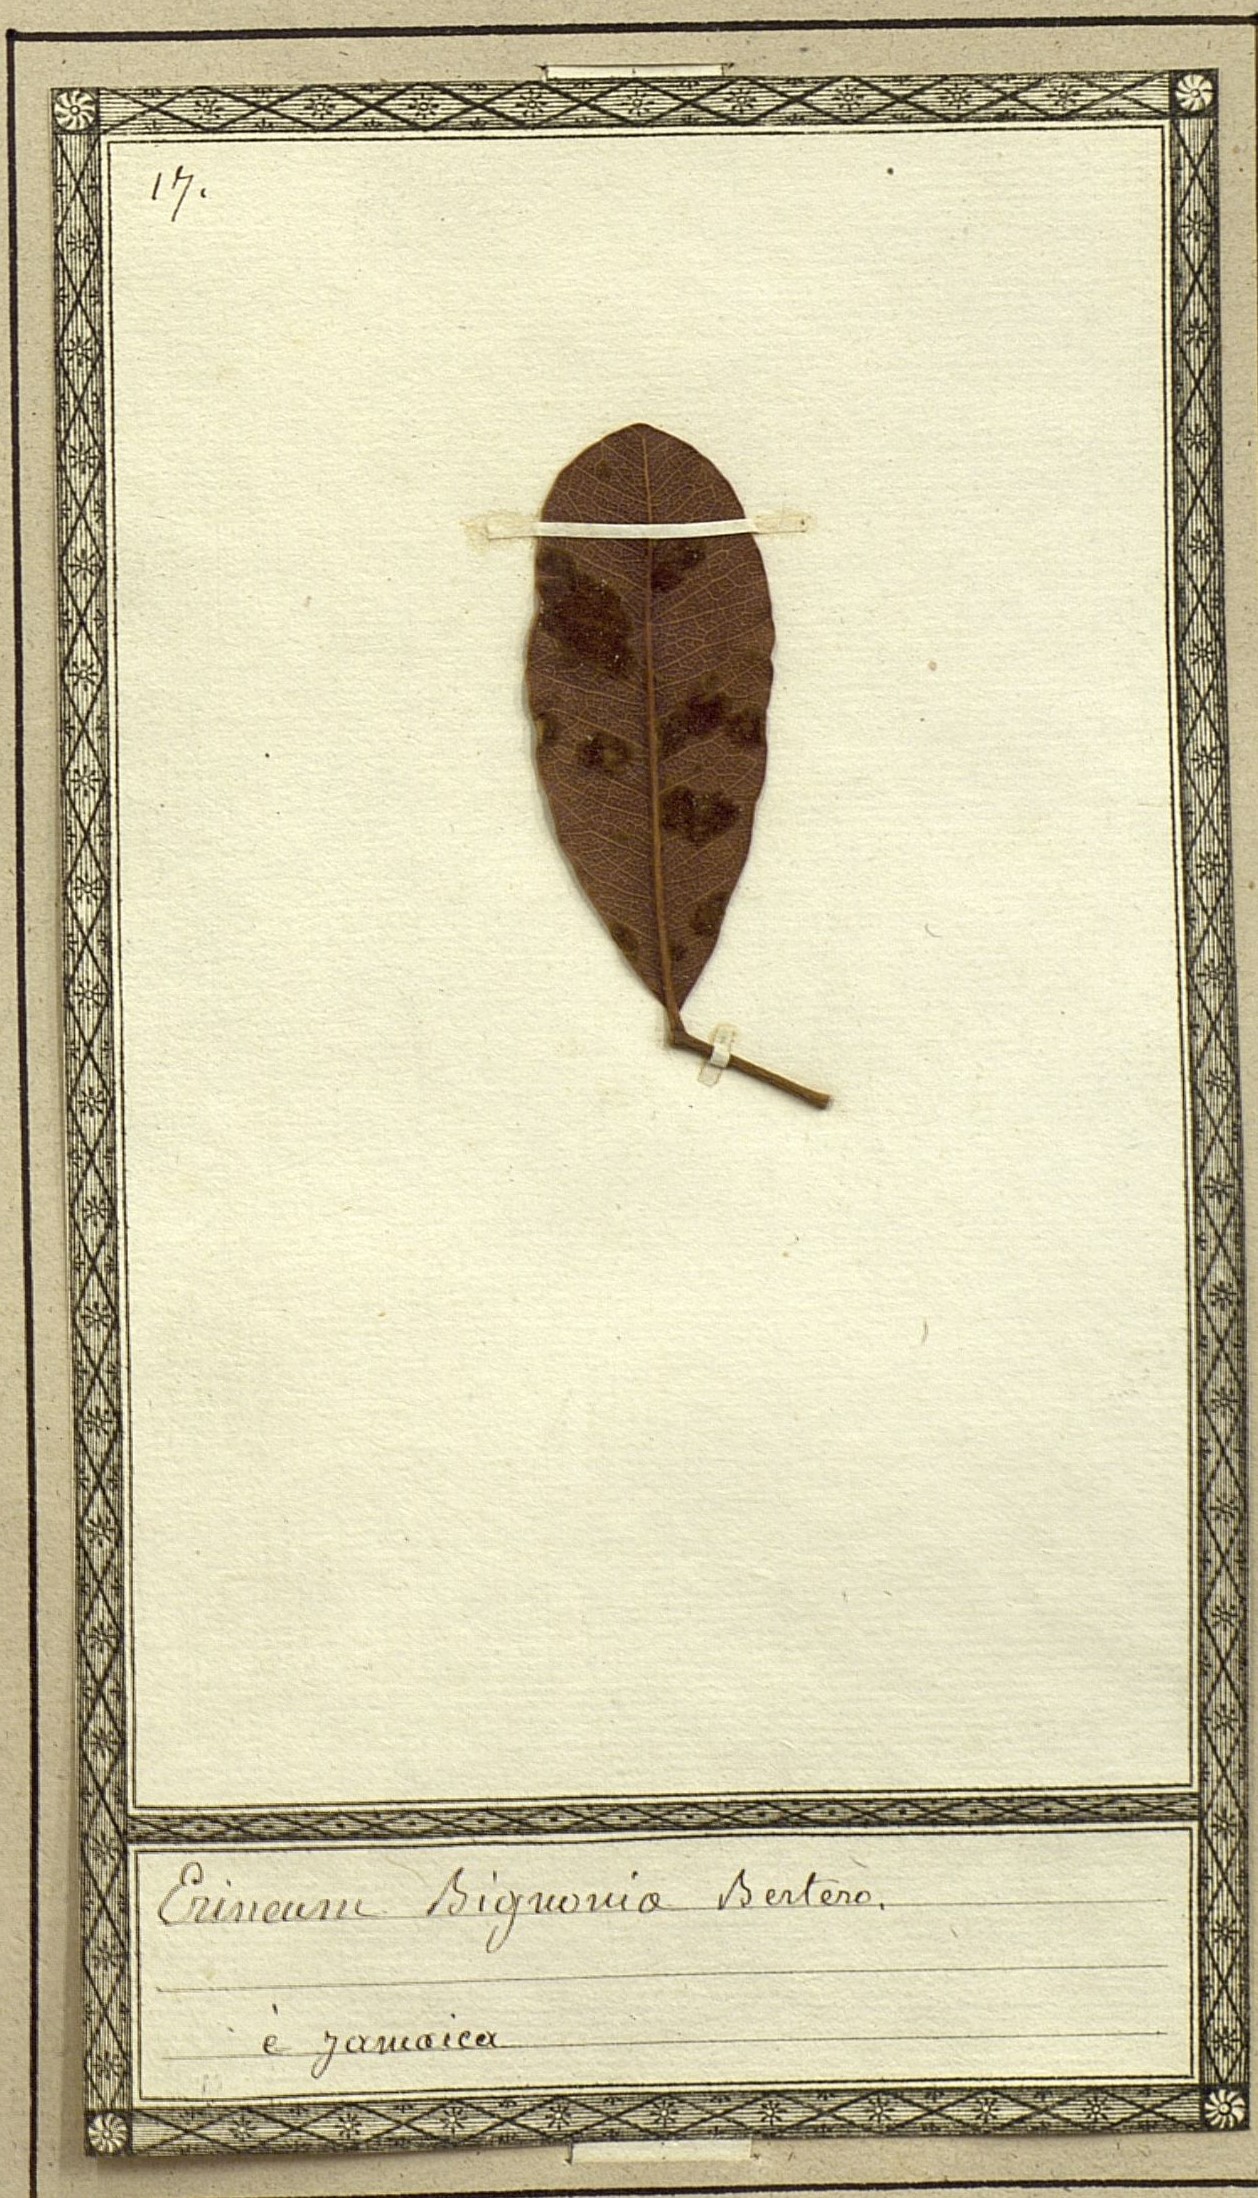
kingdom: Fungi
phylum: Basidiomycota
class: Pucciniomycetes
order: Pucciniales
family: Cronartiaceae
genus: Erineum
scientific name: Erineum
